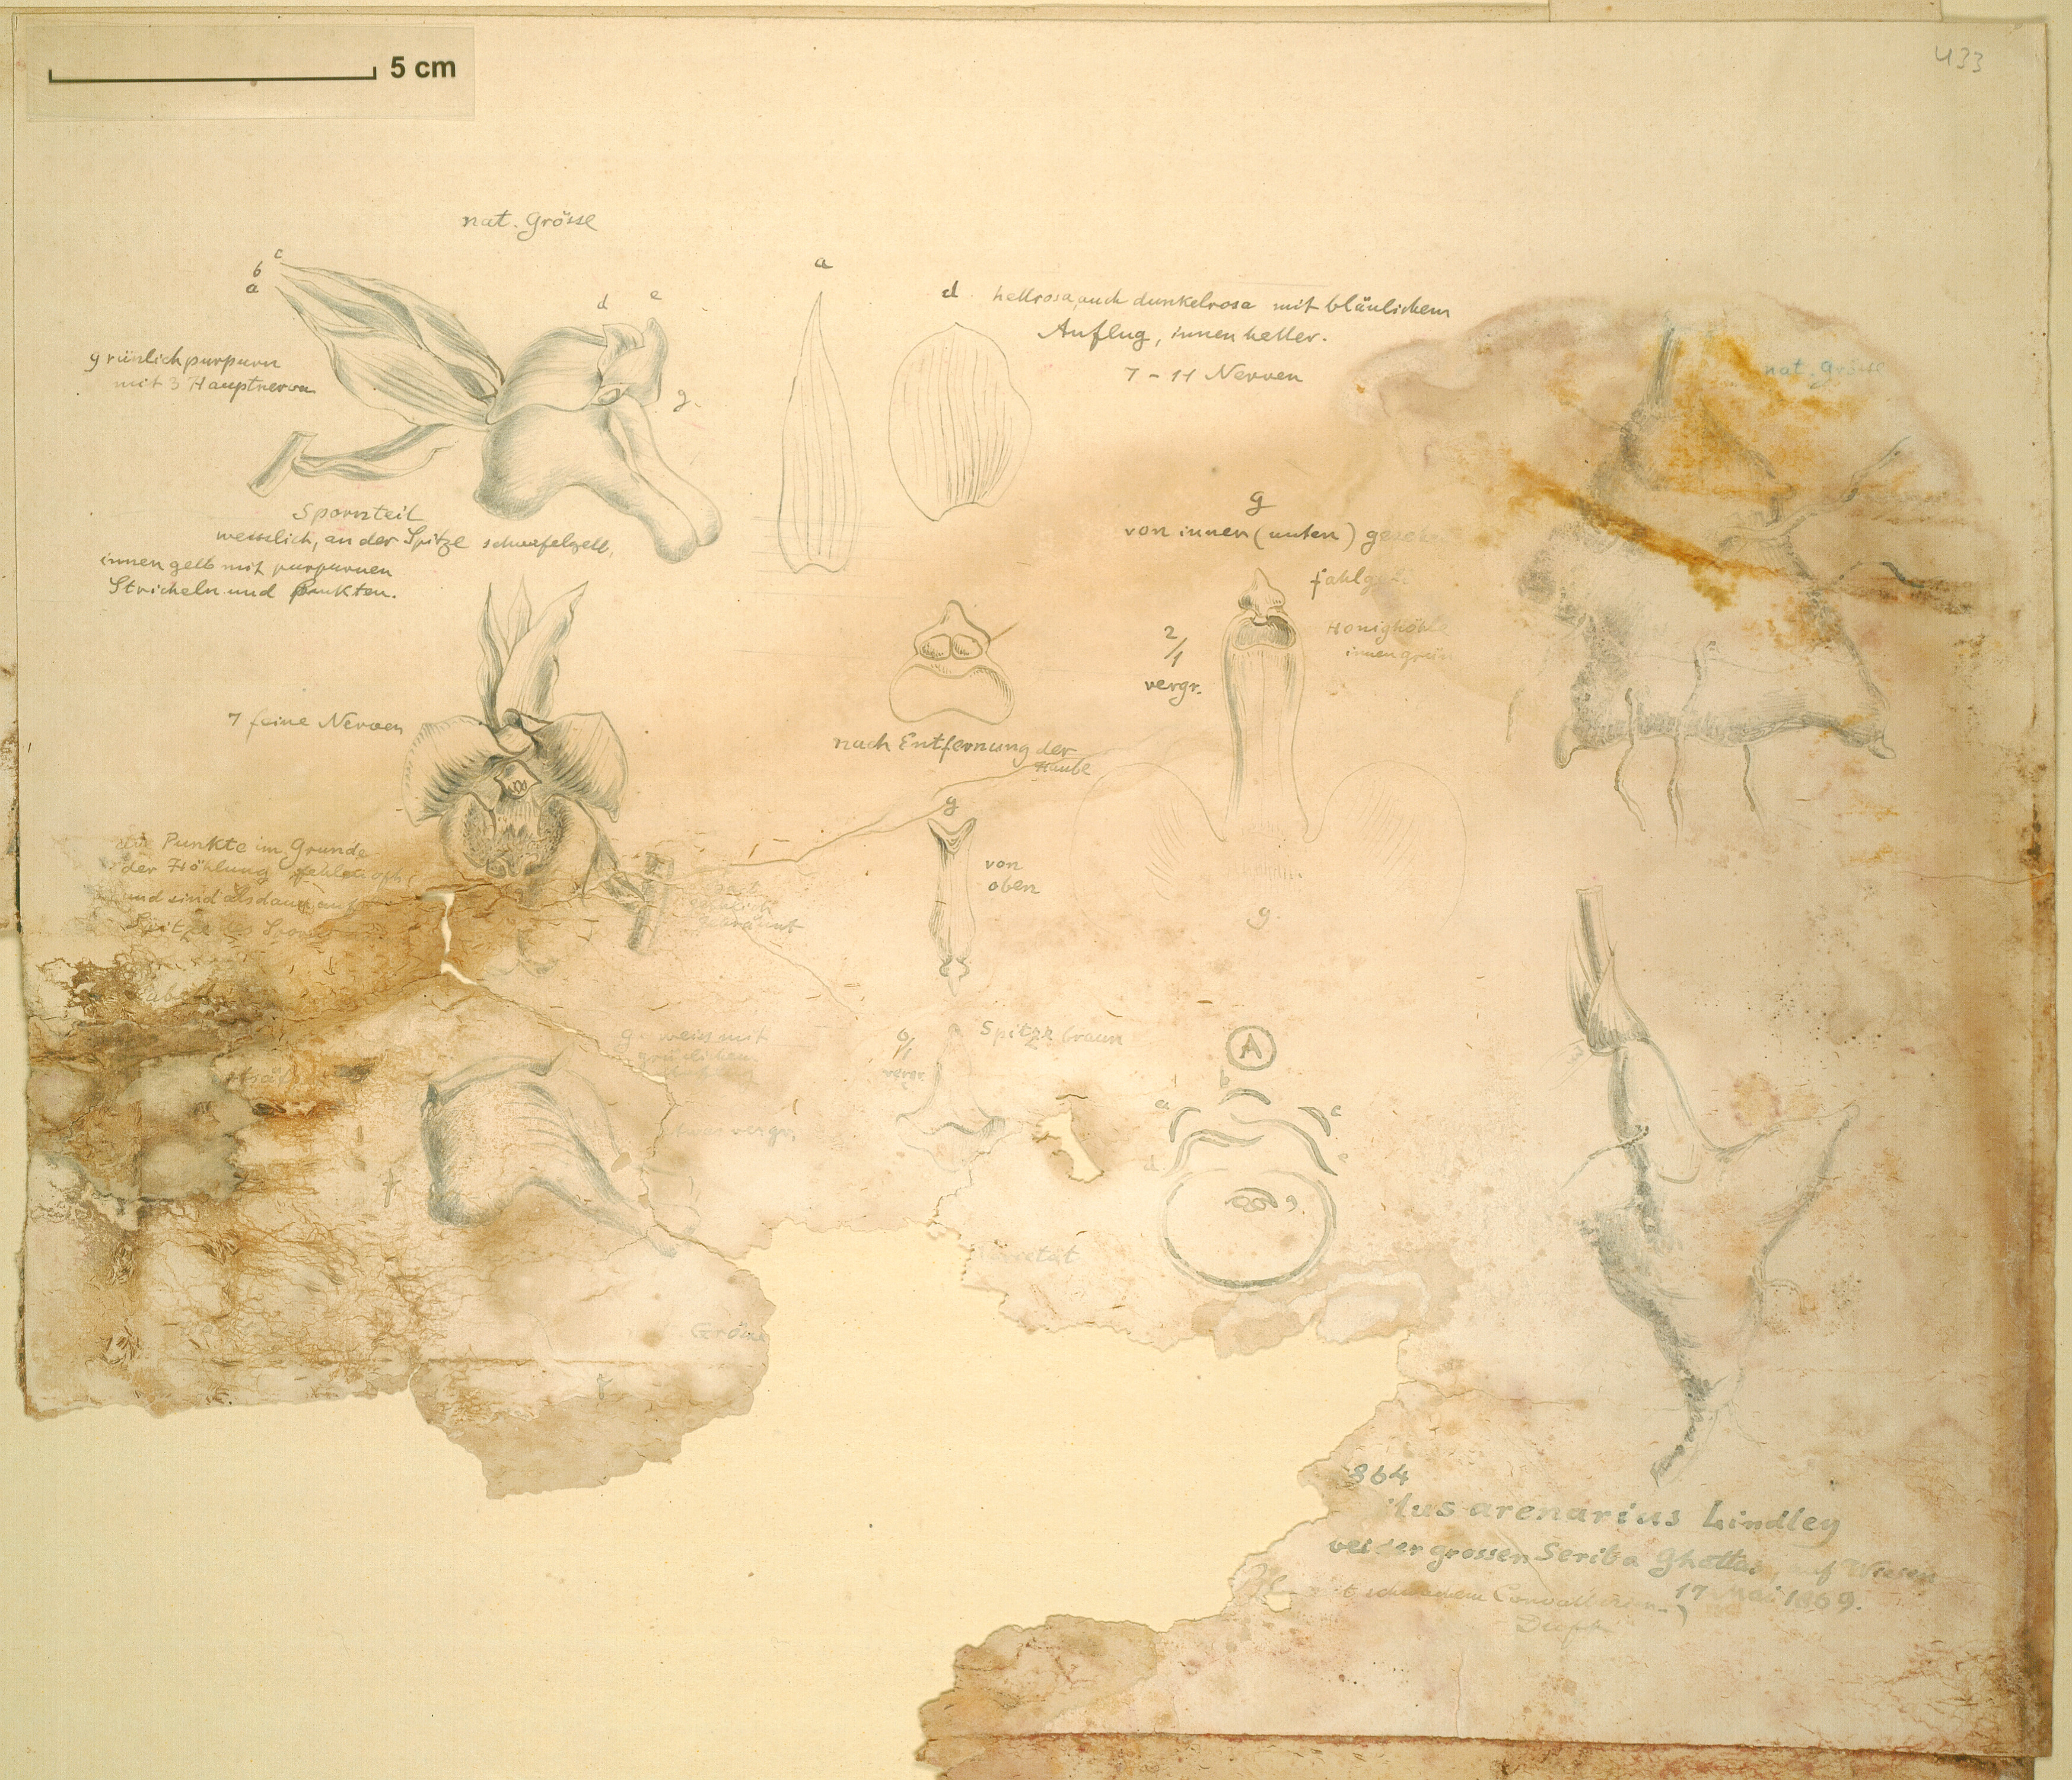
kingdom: Plantae
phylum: Tracheophyta
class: Liliopsida
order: Asparagales
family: Orchidaceae
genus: Eulophia
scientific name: Eulophia cucullata
